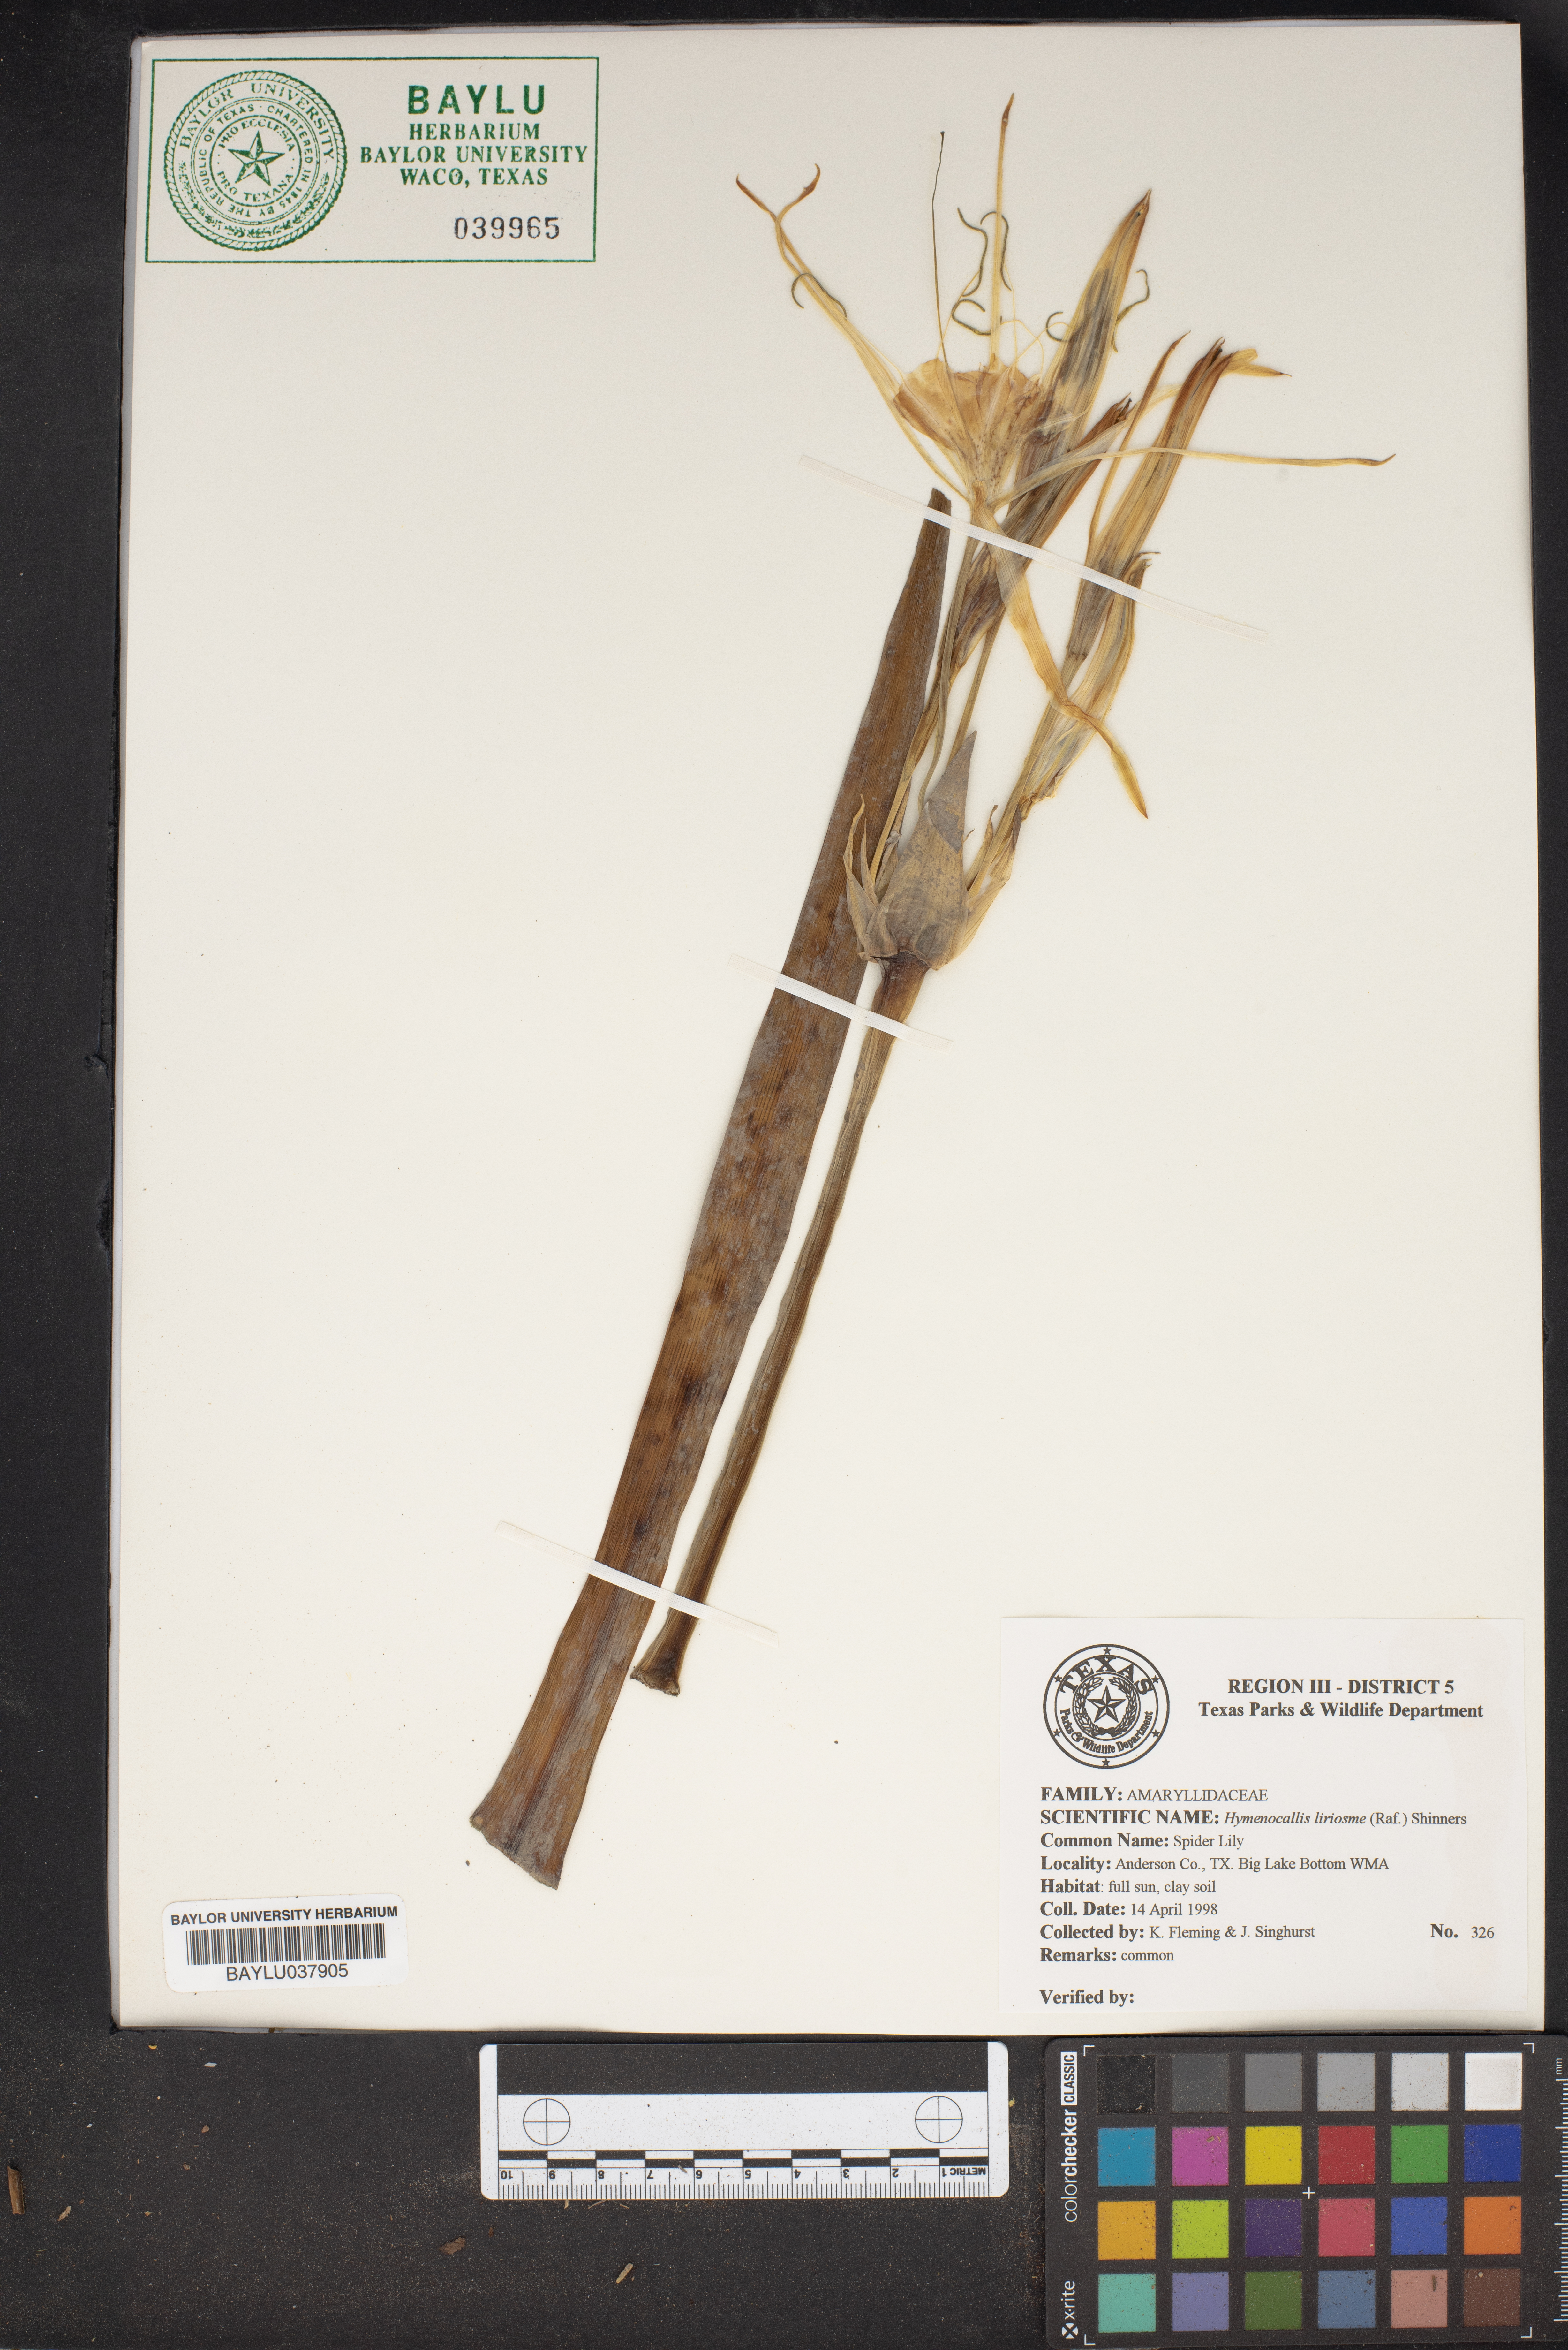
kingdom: Plantae
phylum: Tracheophyta
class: Liliopsida
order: Asparagales
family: Amaryllidaceae
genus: Hymenocallis
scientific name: Hymenocallis liriosme
